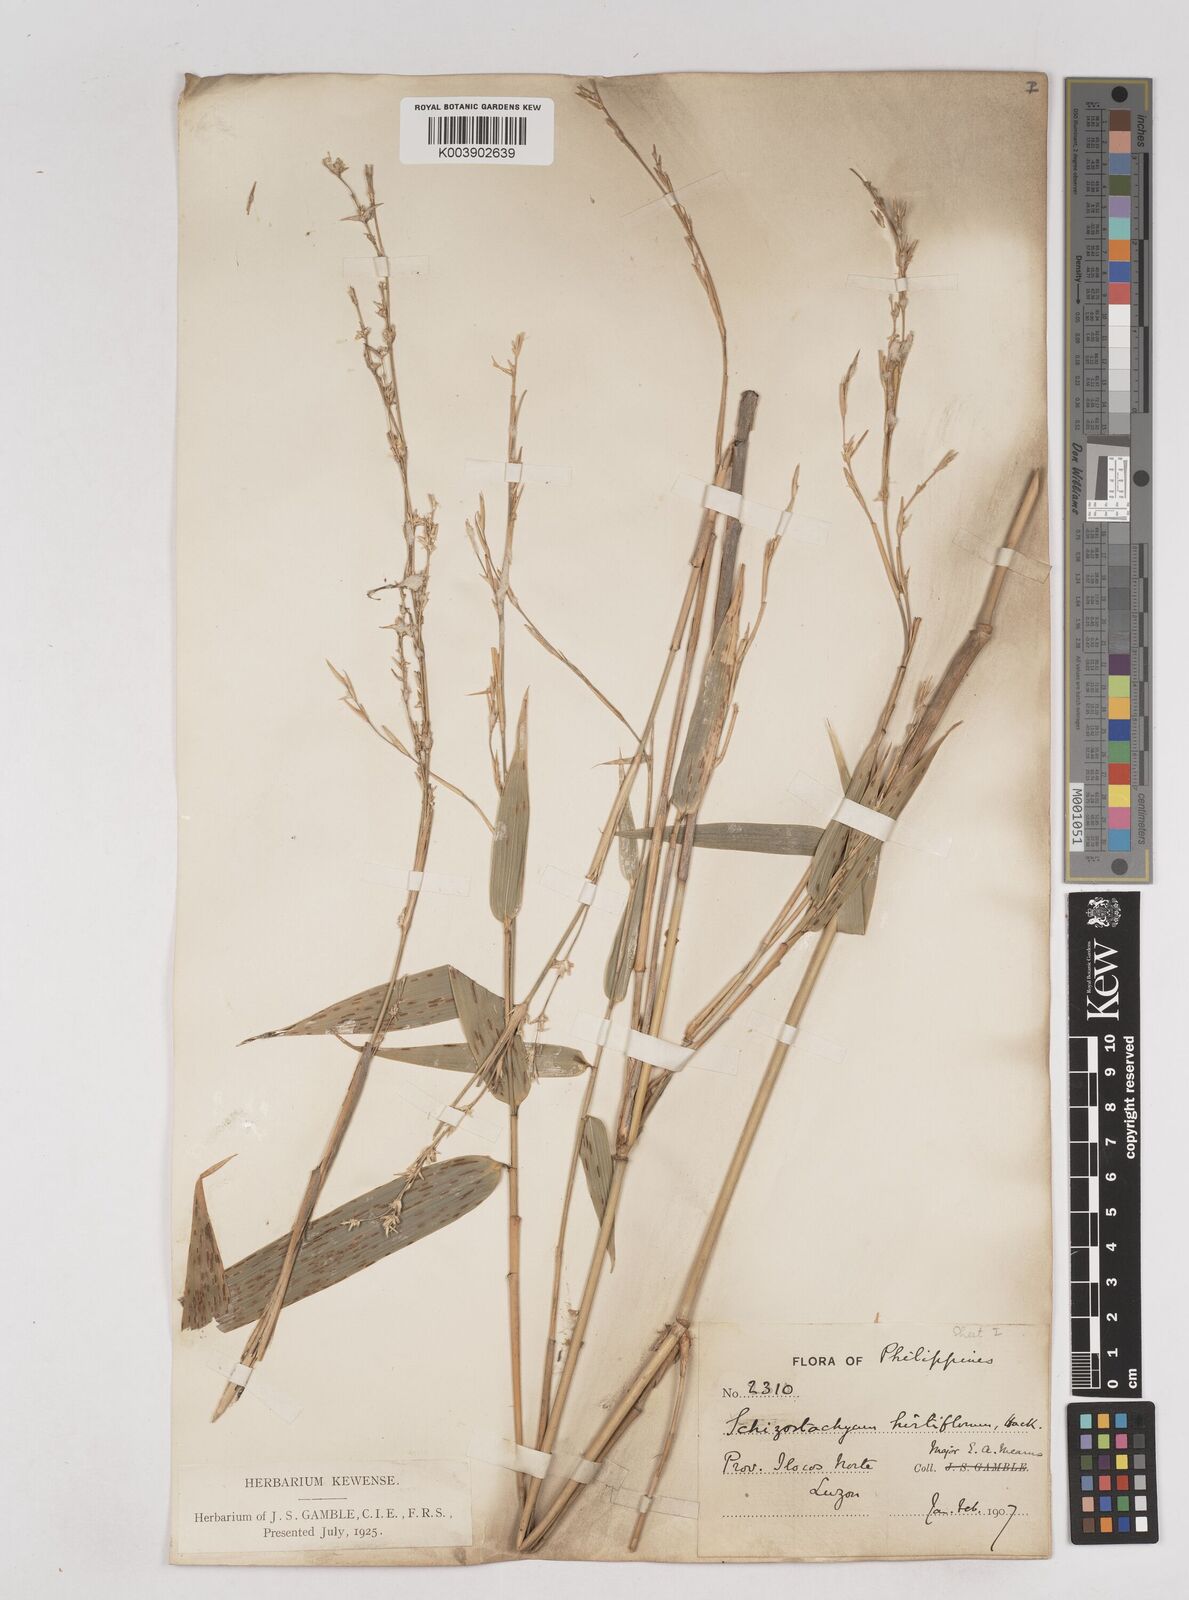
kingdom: Plantae
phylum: Tracheophyta
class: Liliopsida
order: Poales
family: Poaceae
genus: Schizostachyum
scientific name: Schizostachyum lumampao
